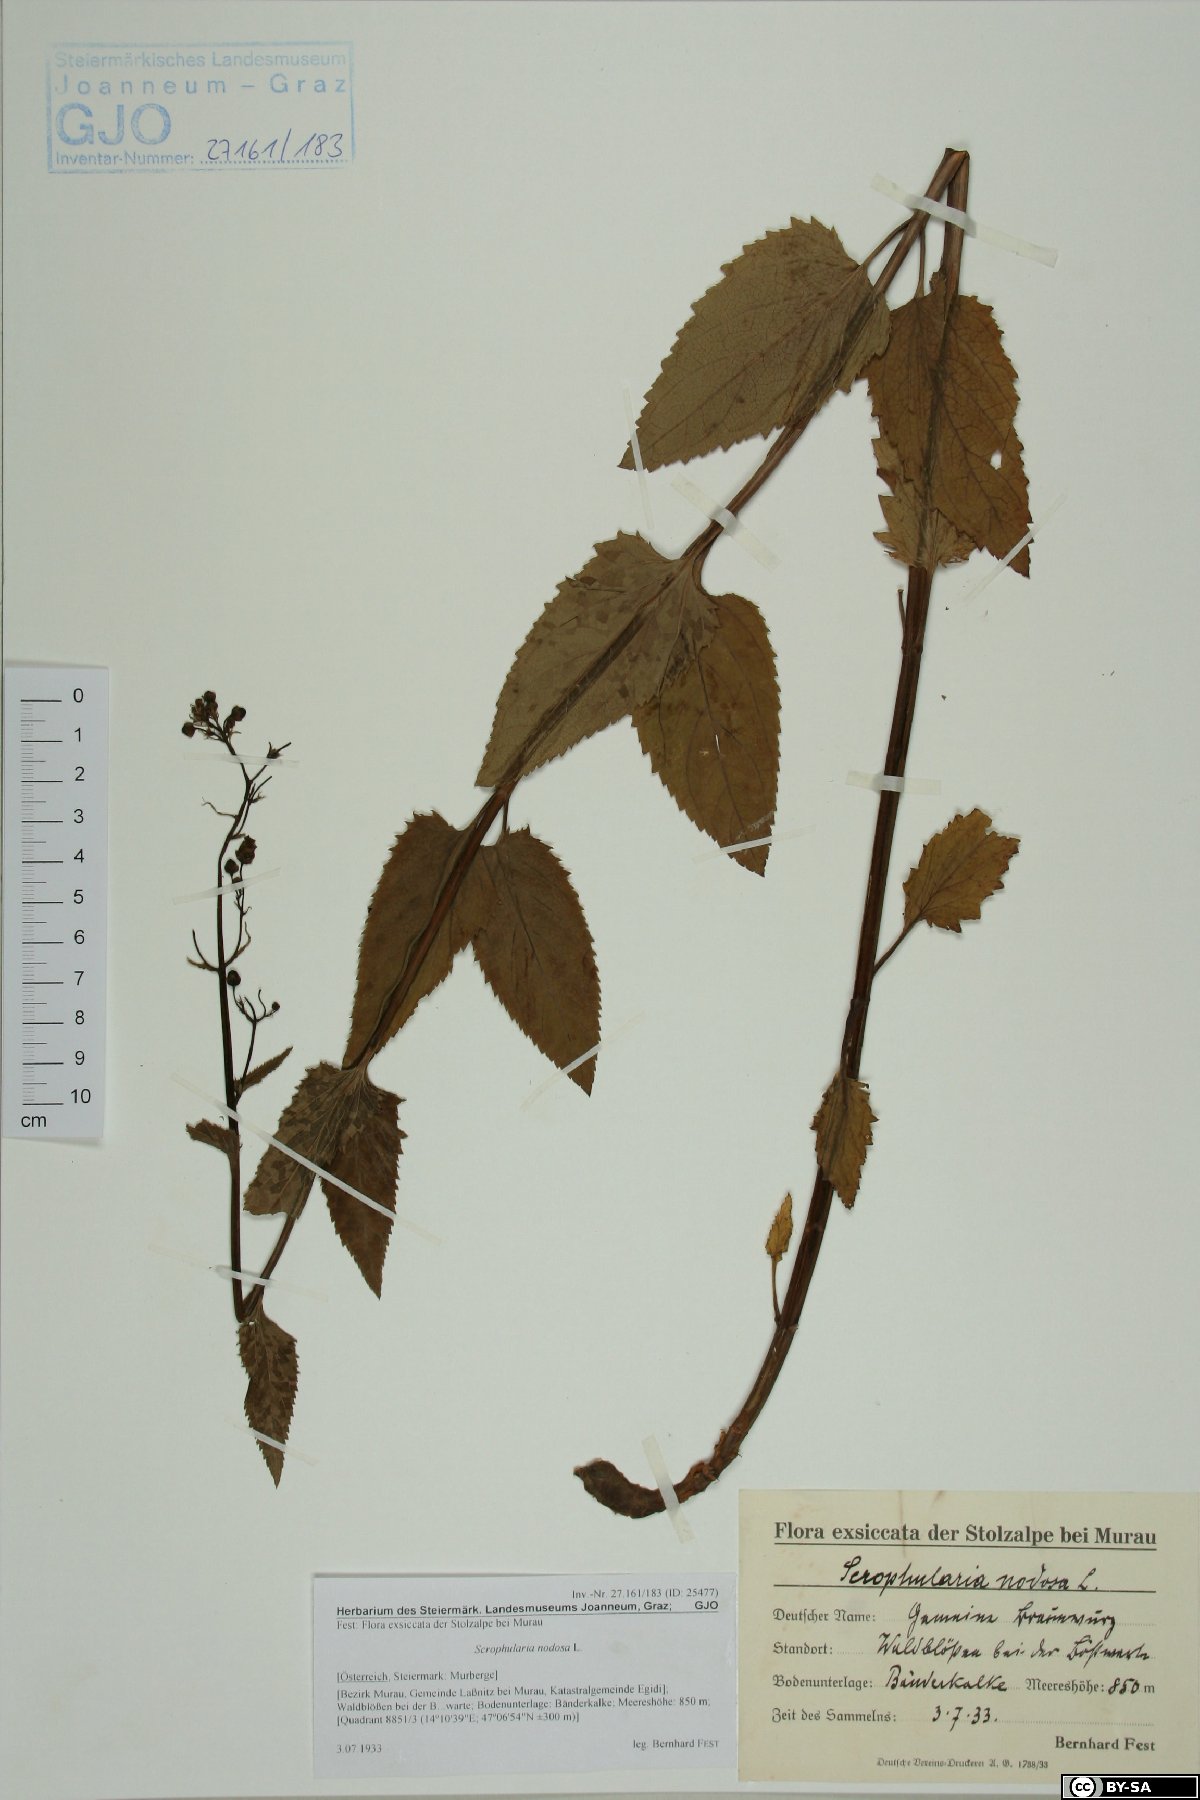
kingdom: Plantae
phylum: Tracheophyta
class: Magnoliopsida
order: Lamiales
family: Scrophulariaceae
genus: Scrophularia
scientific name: Scrophularia nodosa
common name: Common figwort
